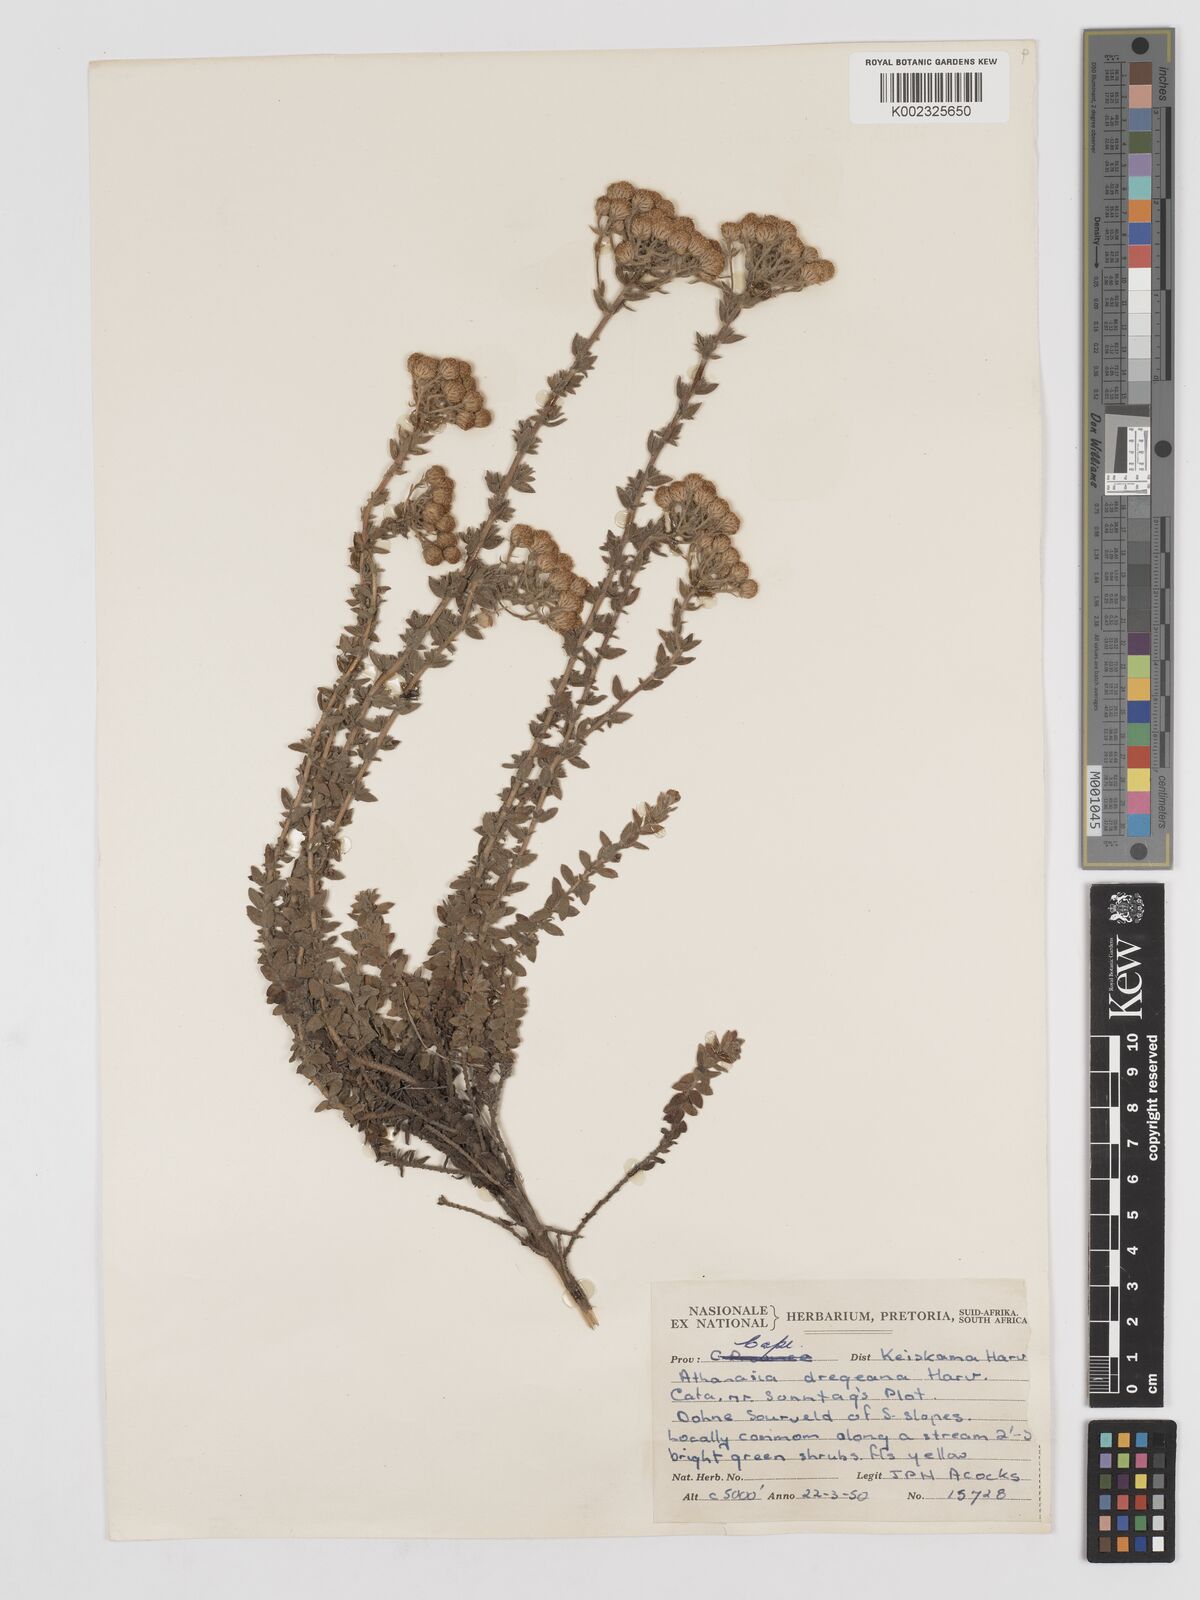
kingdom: Plantae
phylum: Tracheophyta
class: Magnoliopsida
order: Asterales
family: Asteraceae
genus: Inulanthera
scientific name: Inulanthera dregeana
